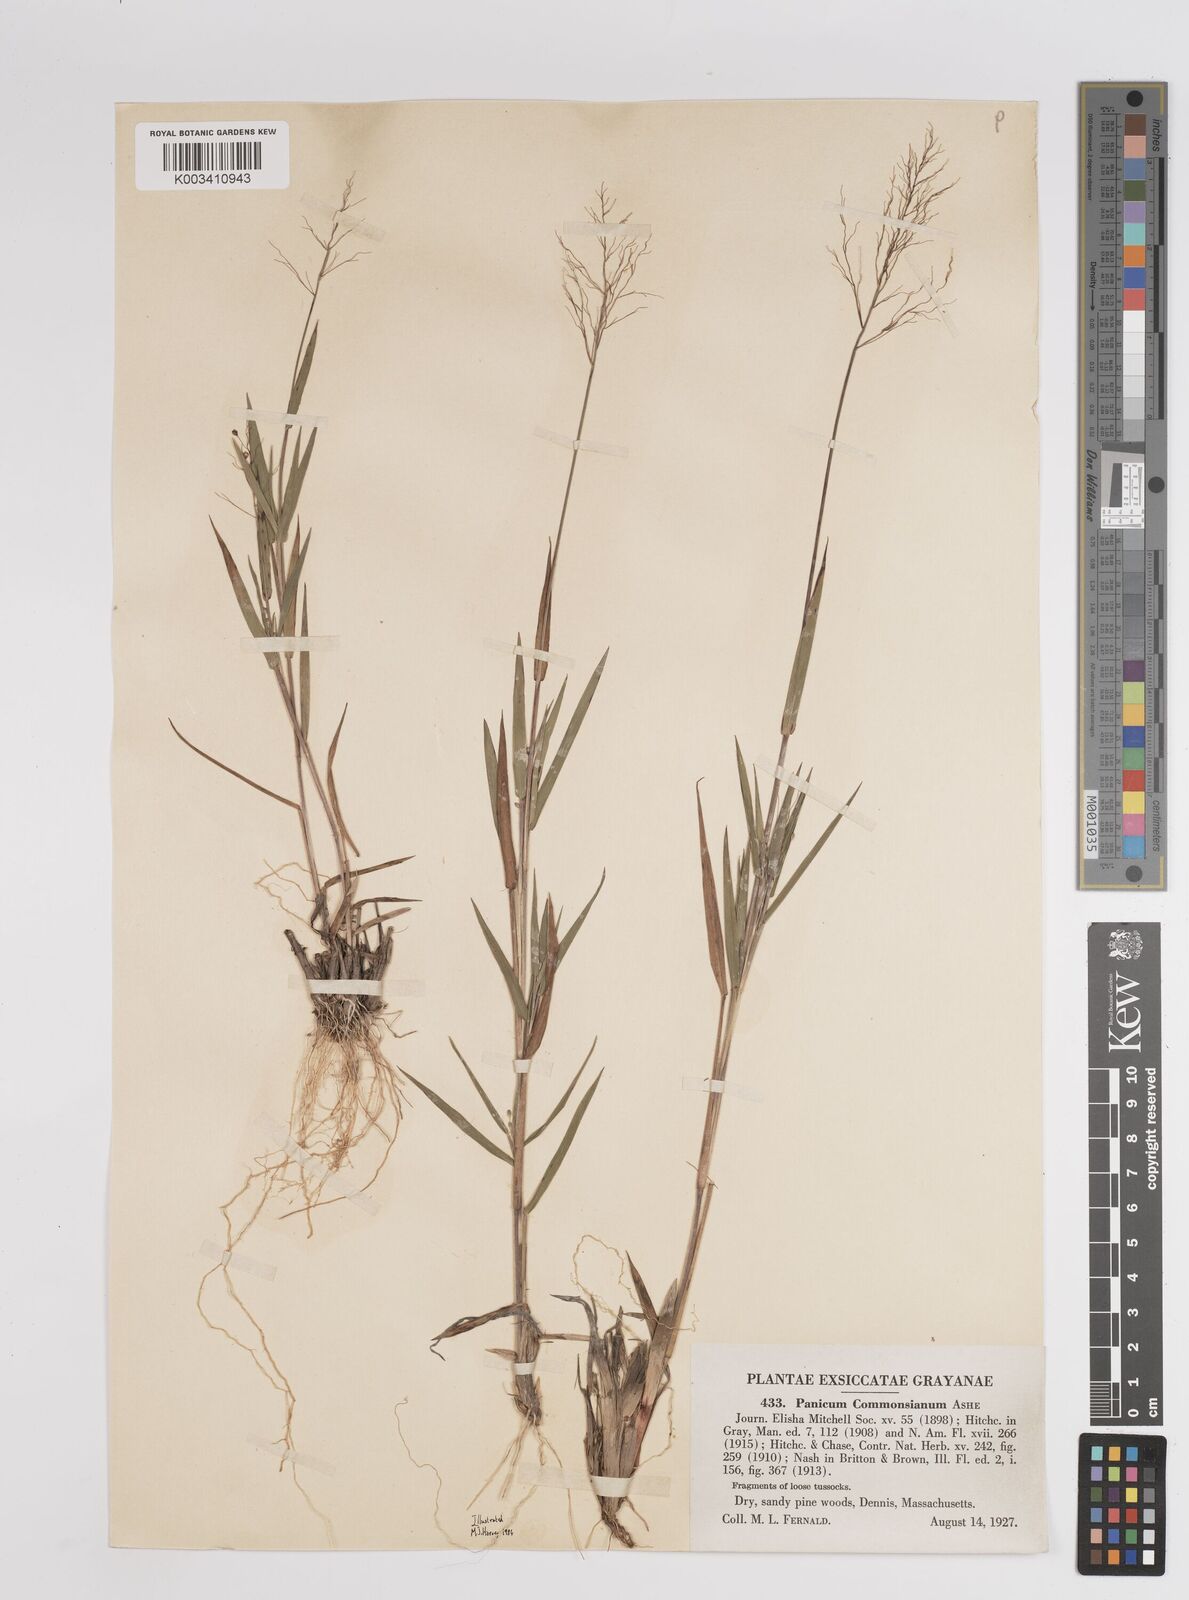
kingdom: Plantae
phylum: Tracheophyta
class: Liliopsida
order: Poales
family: Poaceae
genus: Dichanthelium
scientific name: Dichanthelium commonsianum
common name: Commons' panicgrass
